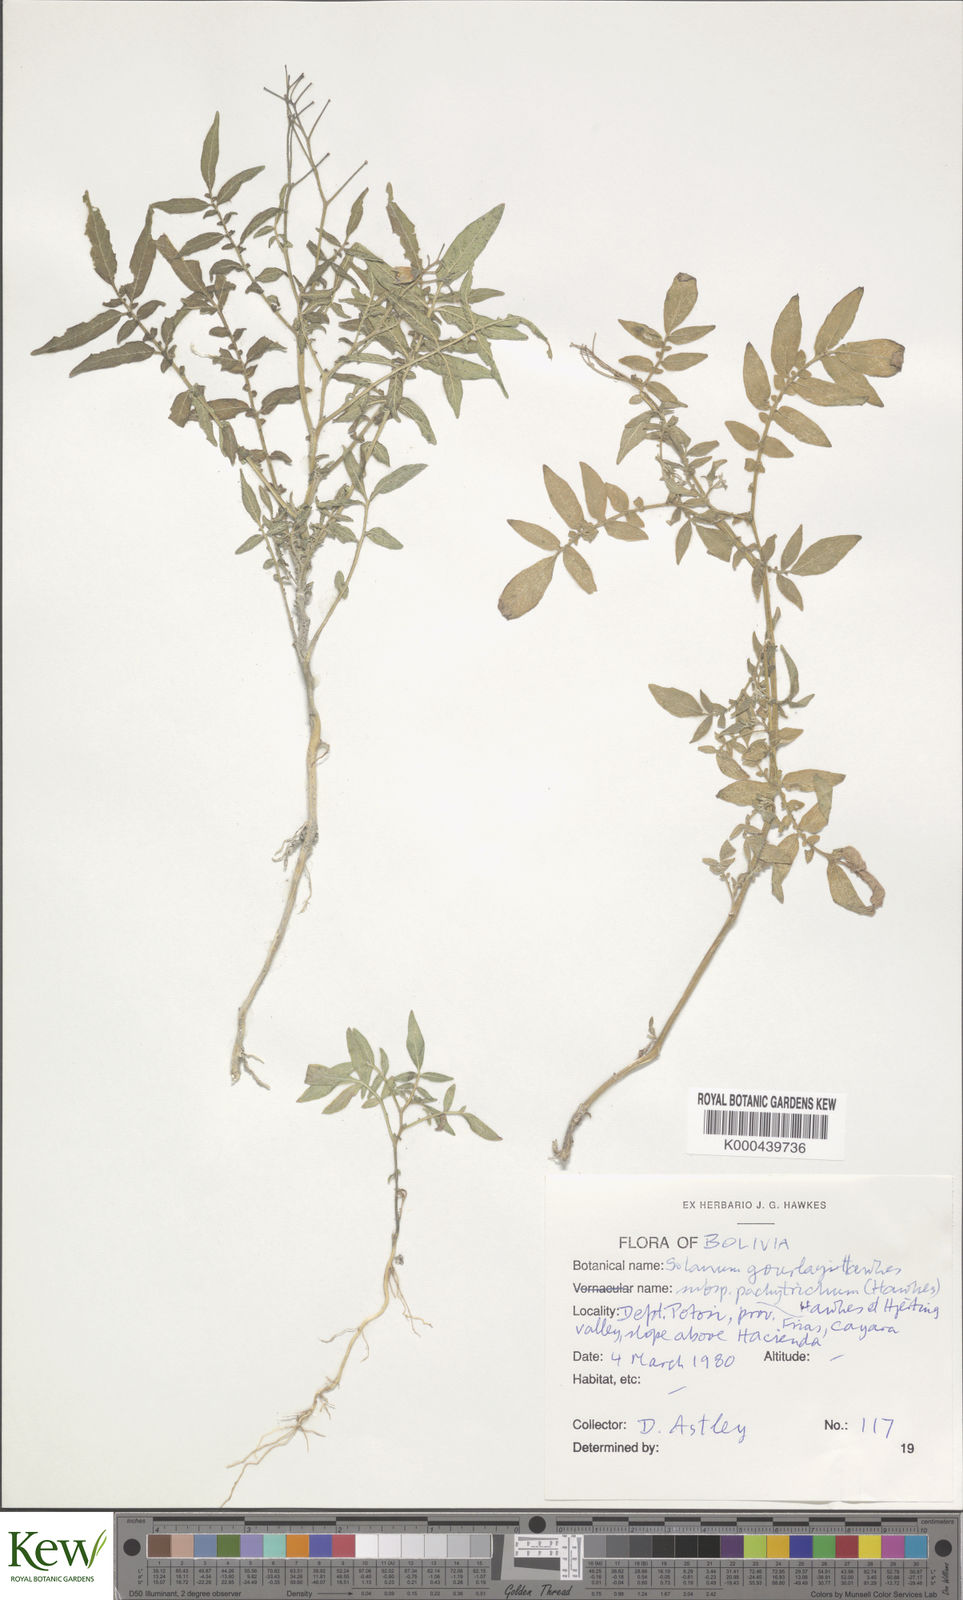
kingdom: Plantae
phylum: Tracheophyta
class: Magnoliopsida
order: Solanales
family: Solanaceae
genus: Solanum
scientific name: Solanum brevicaule
